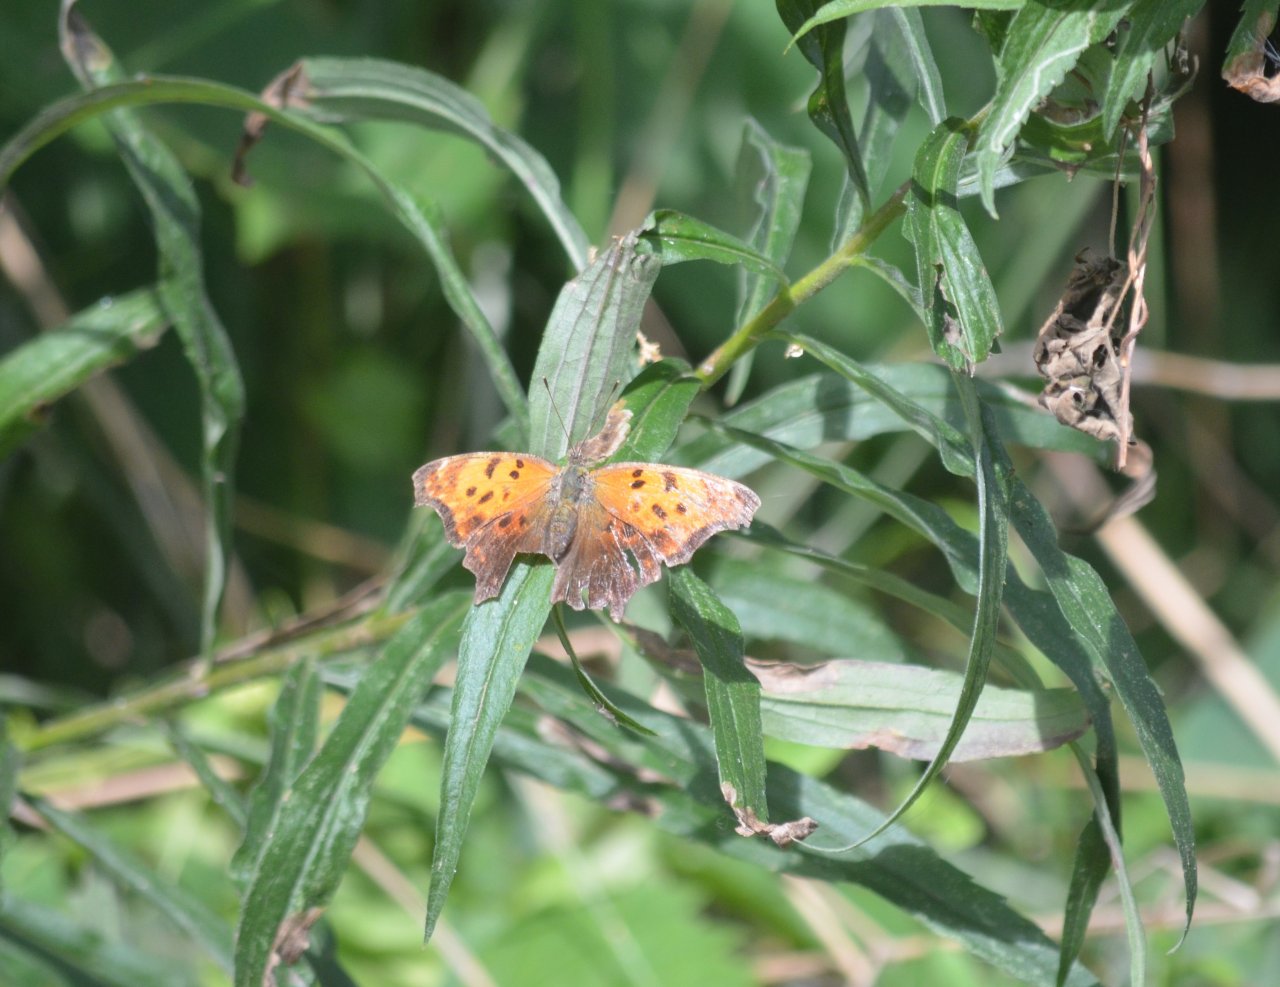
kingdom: Animalia
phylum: Arthropoda
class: Insecta
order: Lepidoptera
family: Nymphalidae
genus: Polygonia
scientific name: Polygonia comma
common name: Eastern Comma
